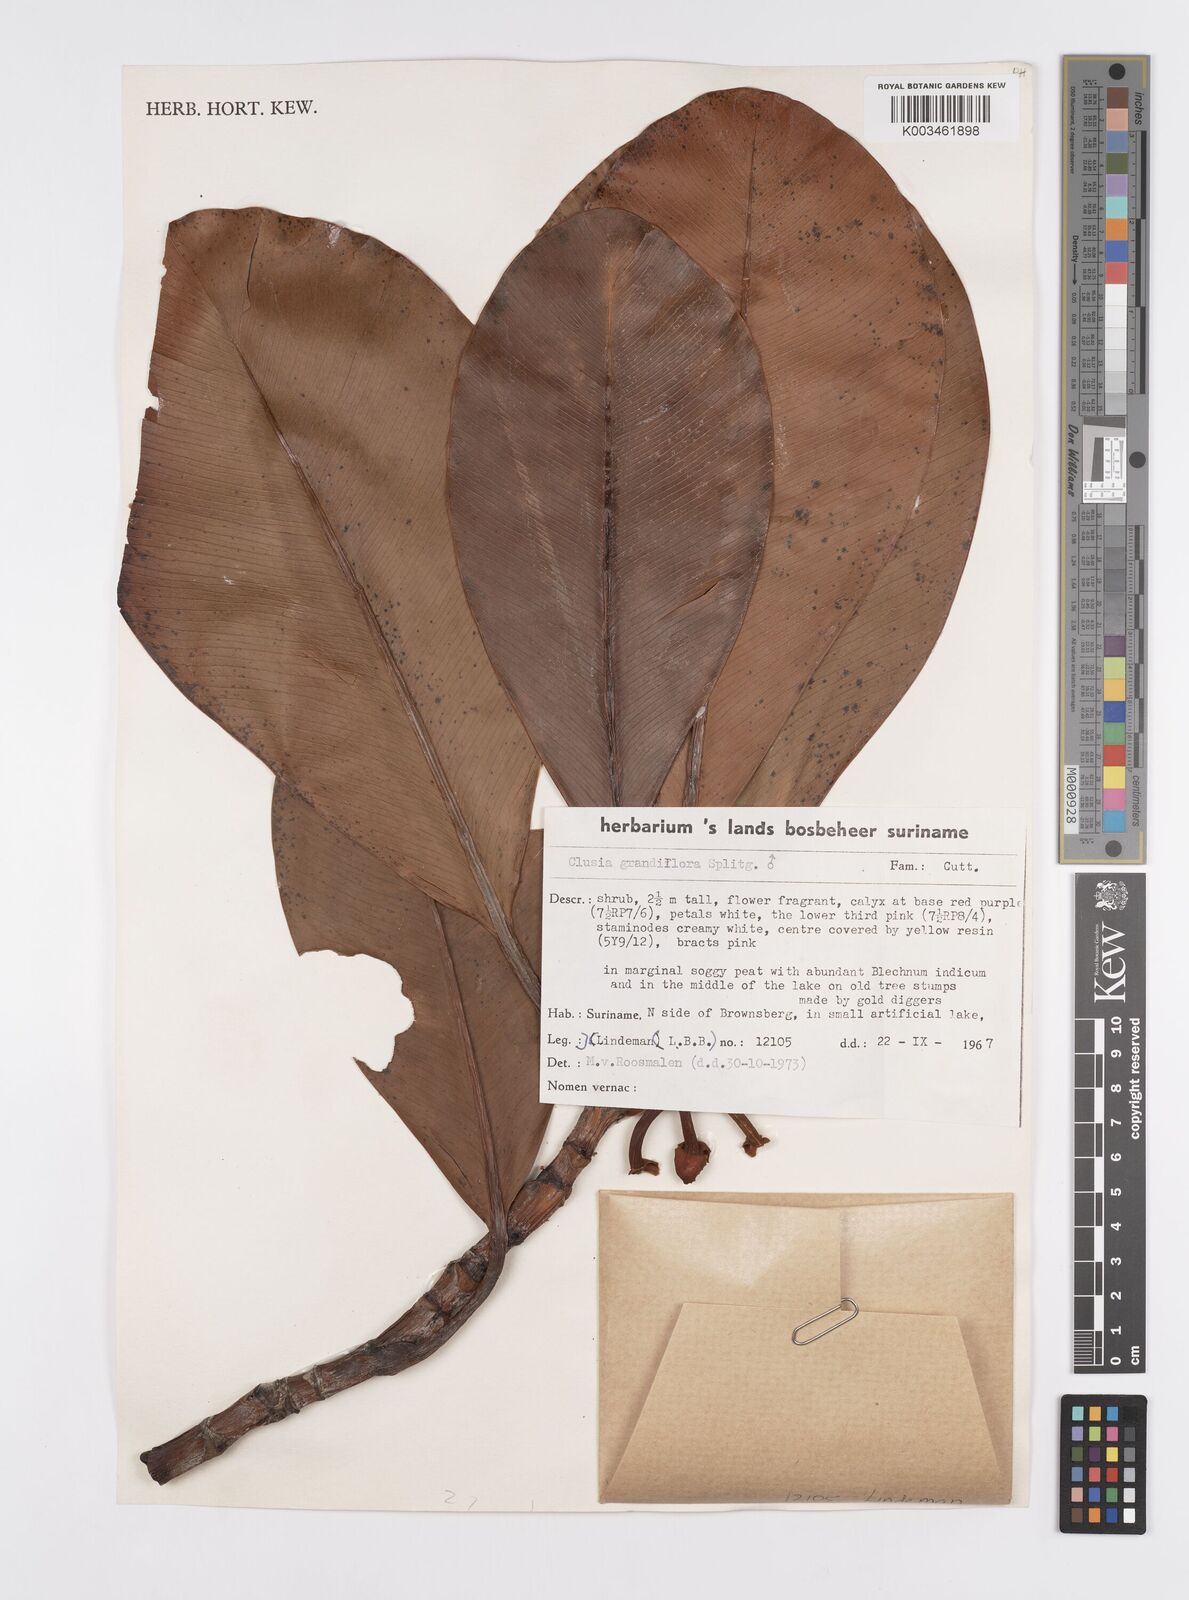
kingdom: Plantae
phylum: Tracheophyta
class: Magnoliopsida
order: Malpighiales
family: Clusiaceae
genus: Clusia
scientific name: Clusia grandiflora
